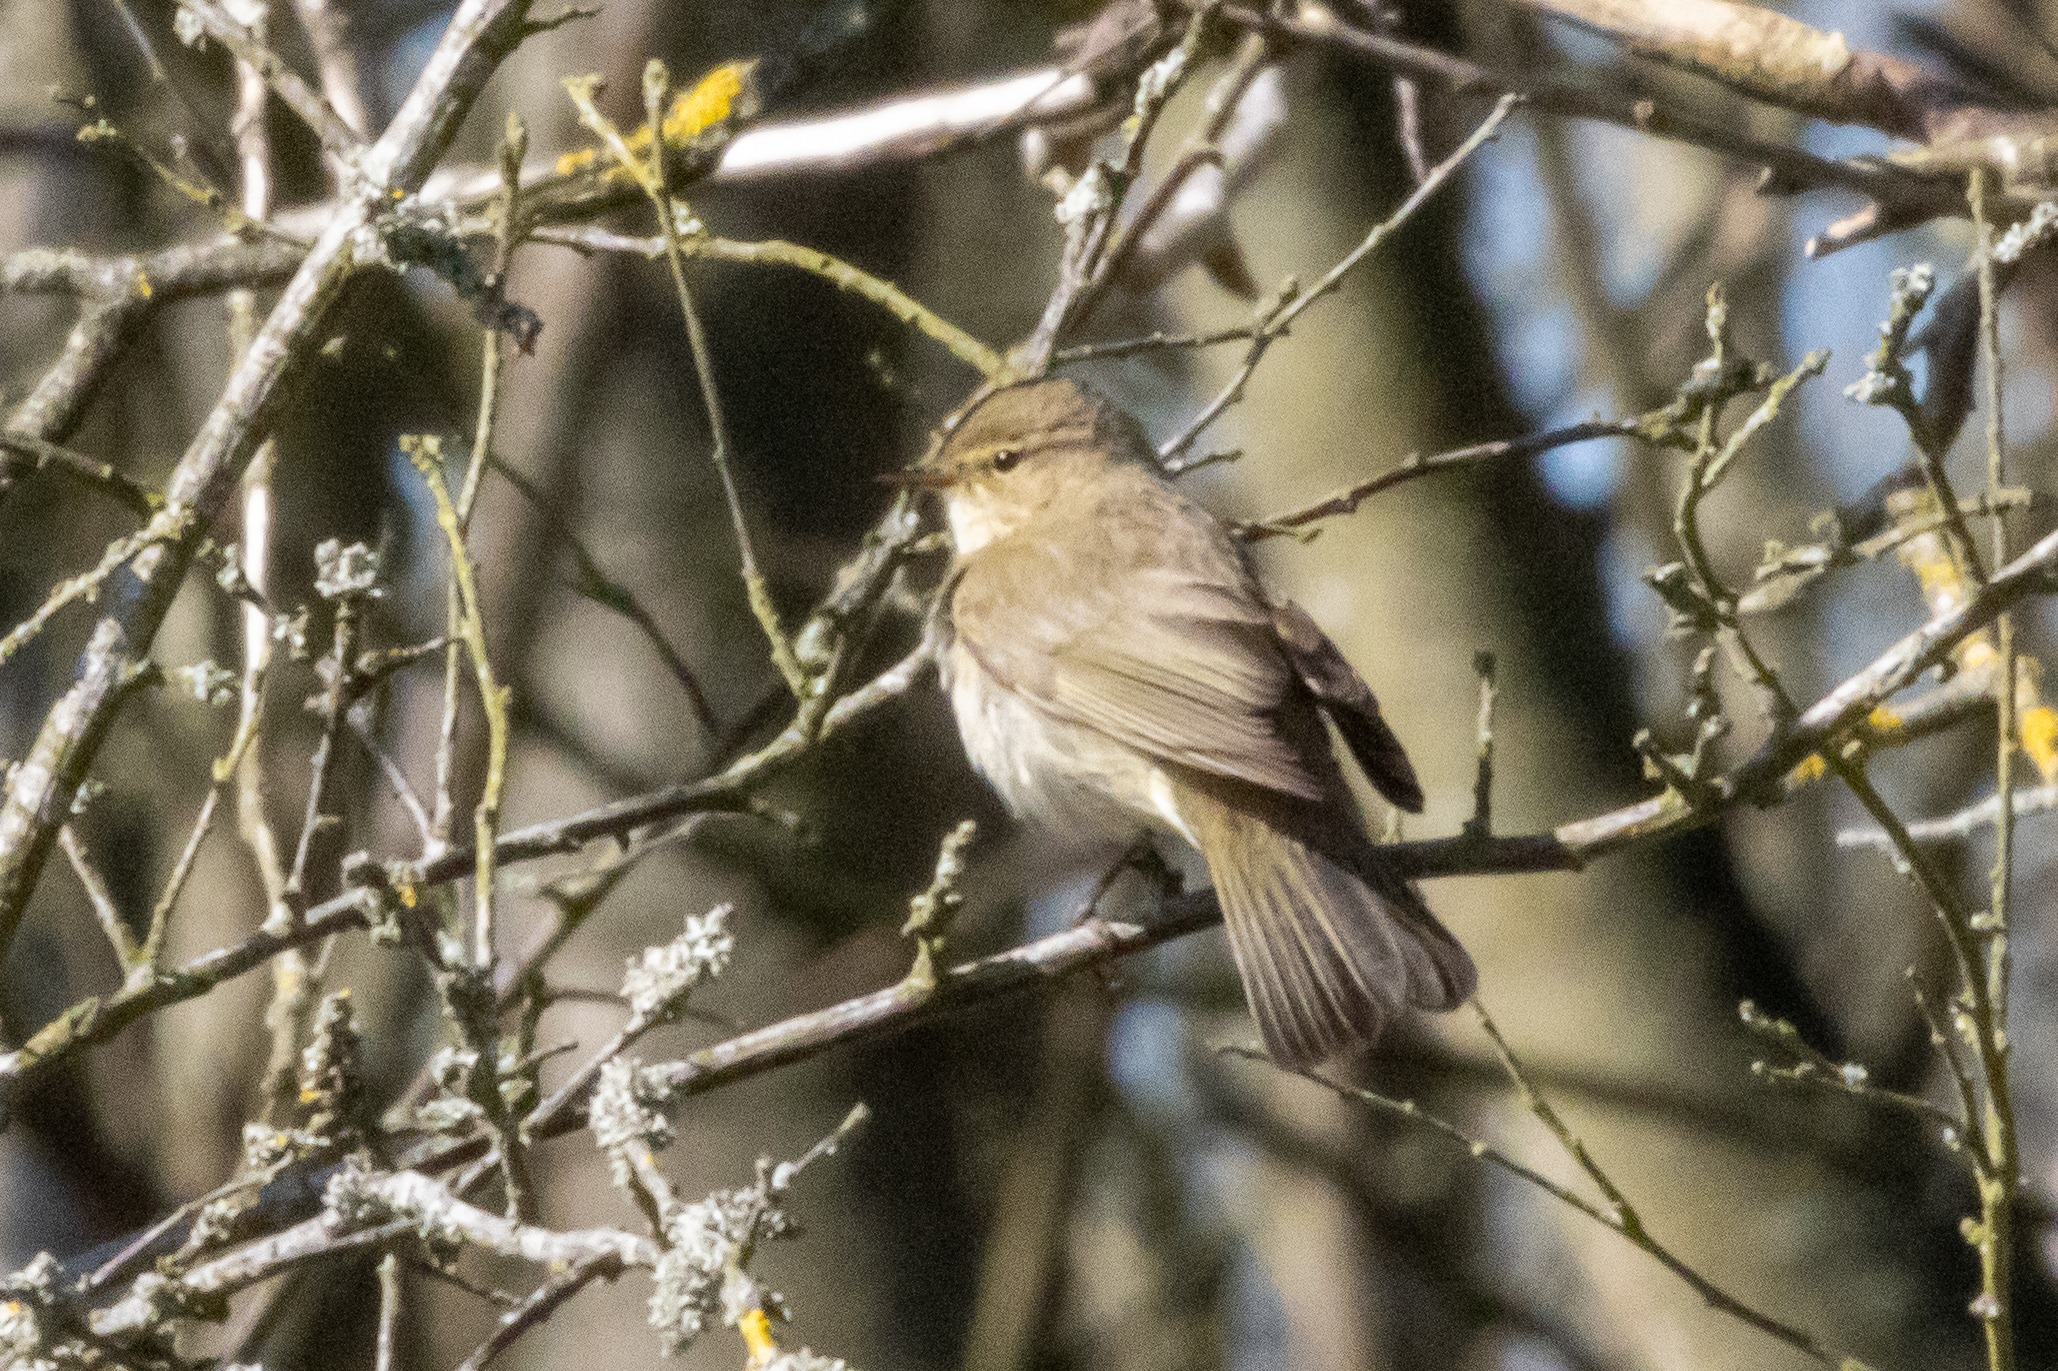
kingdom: Animalia
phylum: Chordata
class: Aves
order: Passeriformes
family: Phylloscopidae
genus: Phylloscopus
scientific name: Phylloscopus collybita
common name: Gransanger
